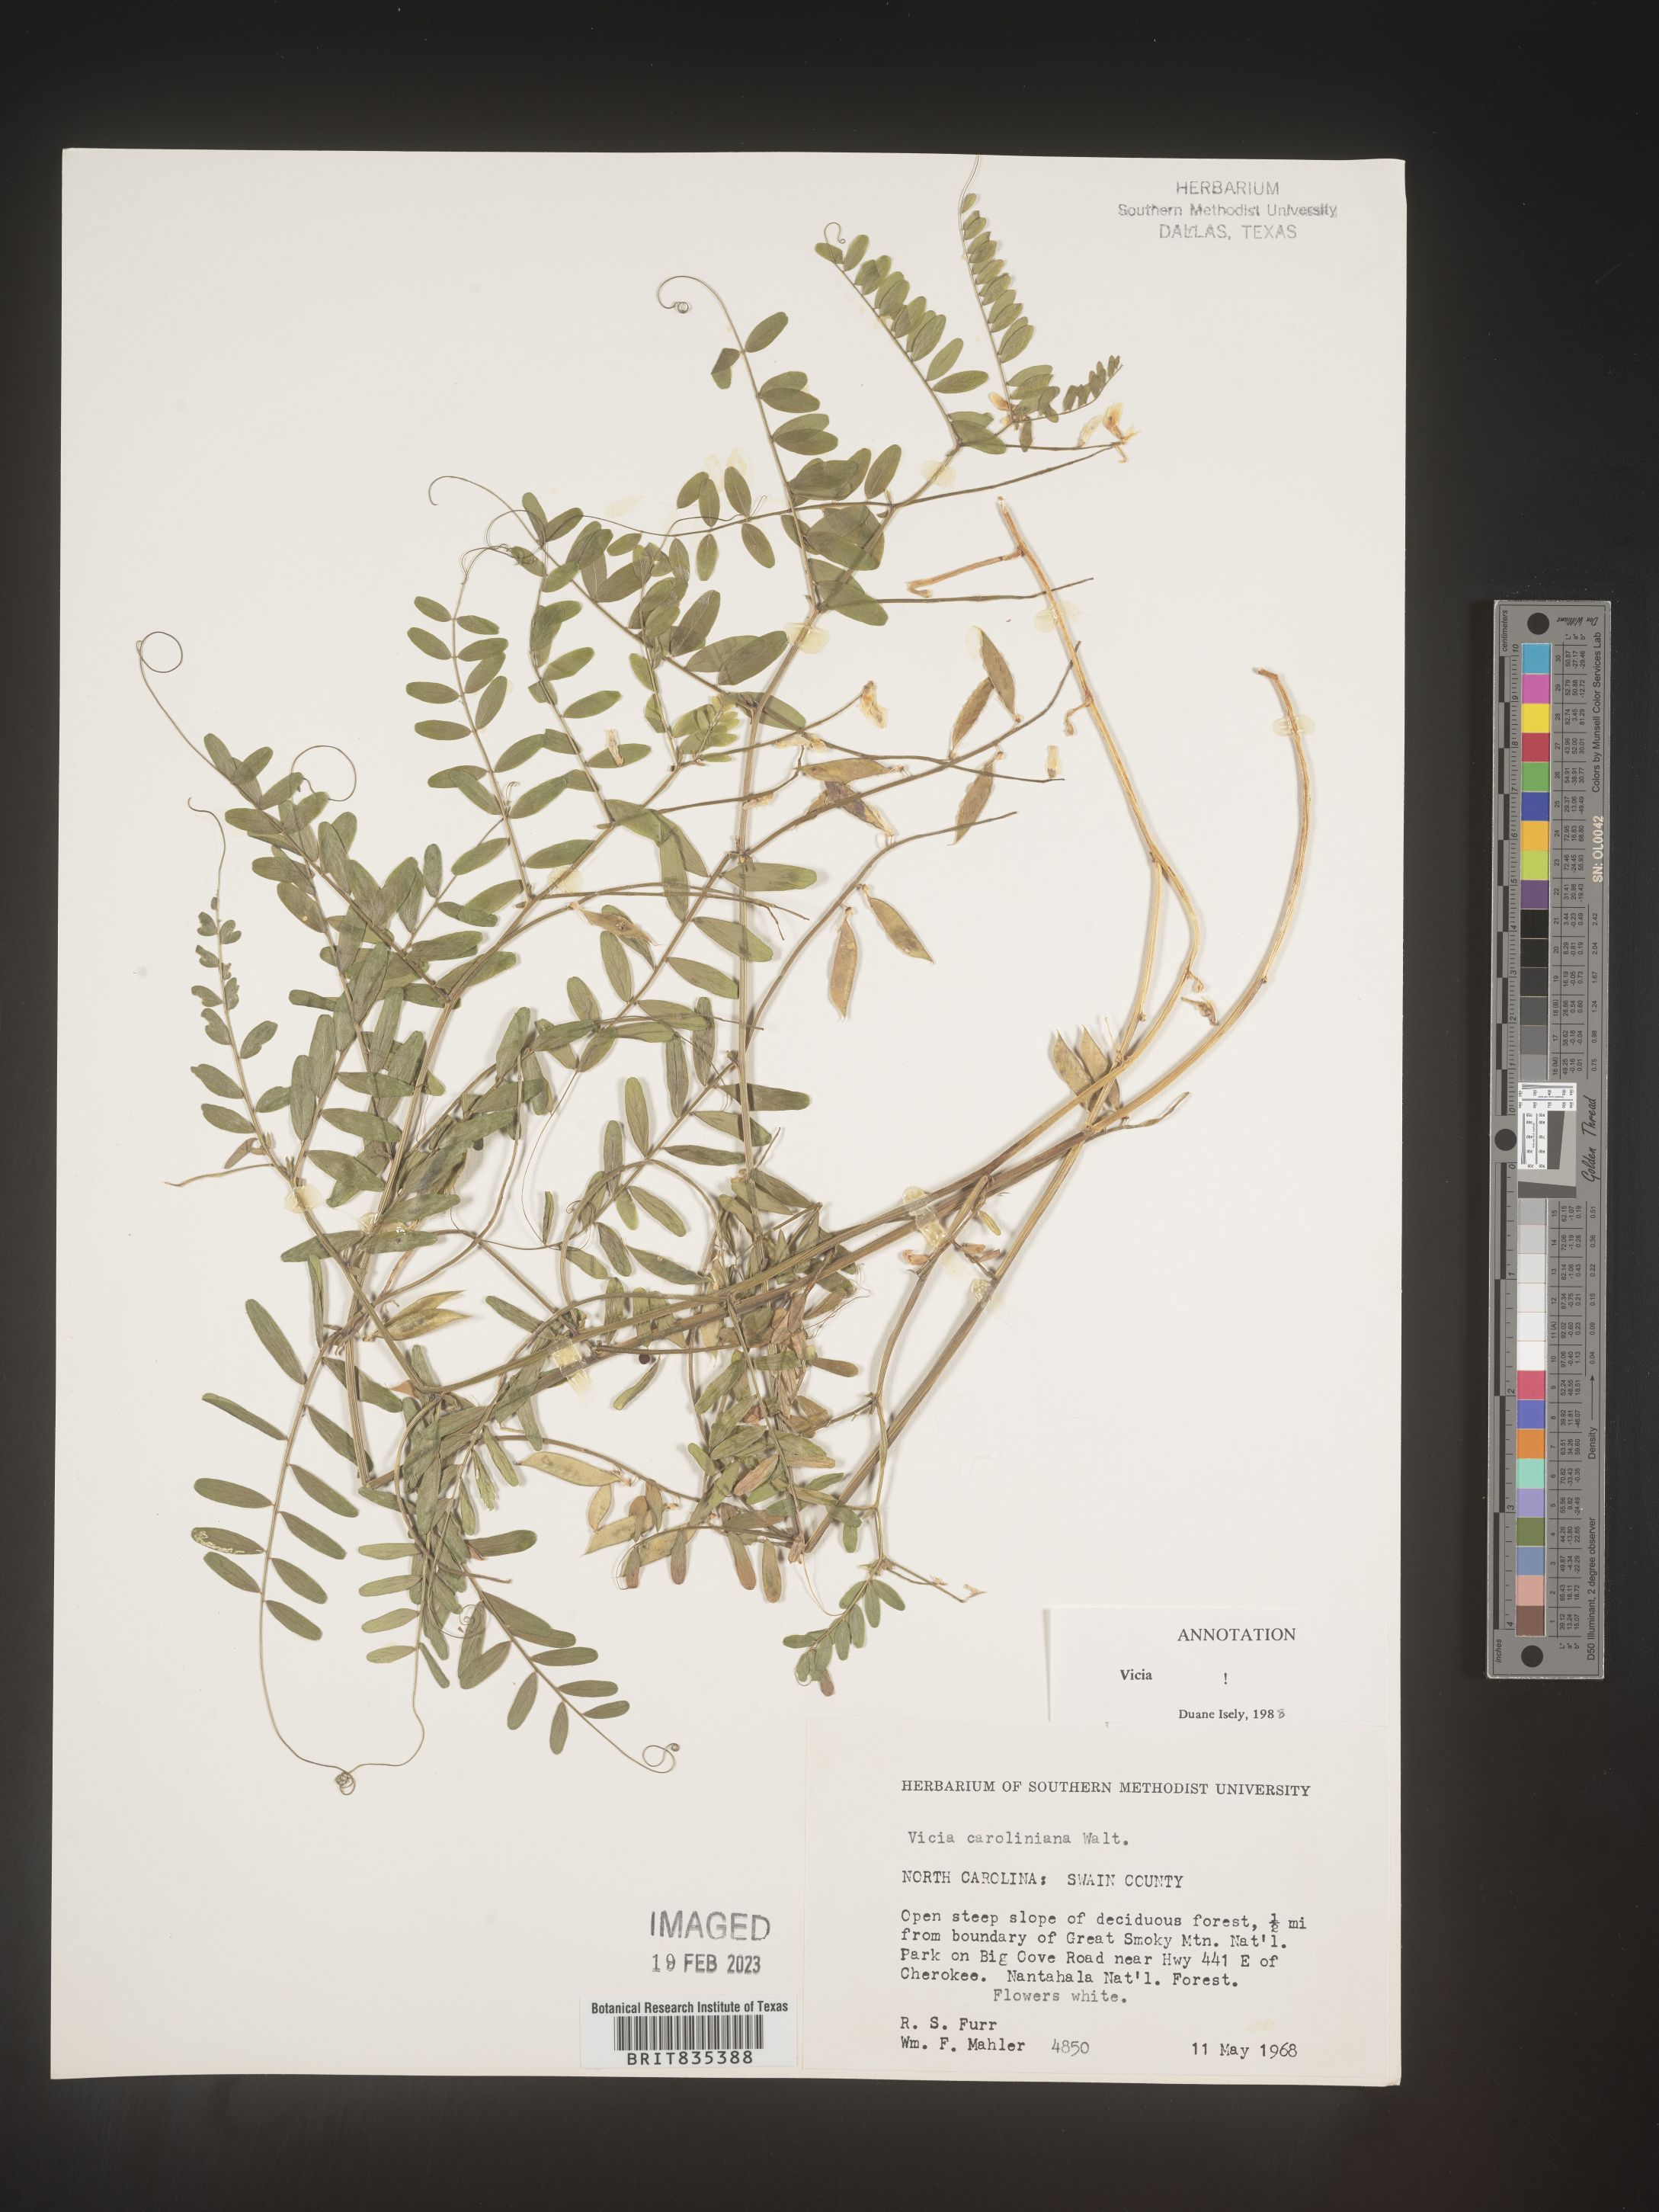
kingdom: Plantae
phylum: Tracheophyta
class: Magnoliopsida
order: Fabales
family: Fabaceae
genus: Vicia
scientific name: Vicia caroliniana
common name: Carolina vetch
